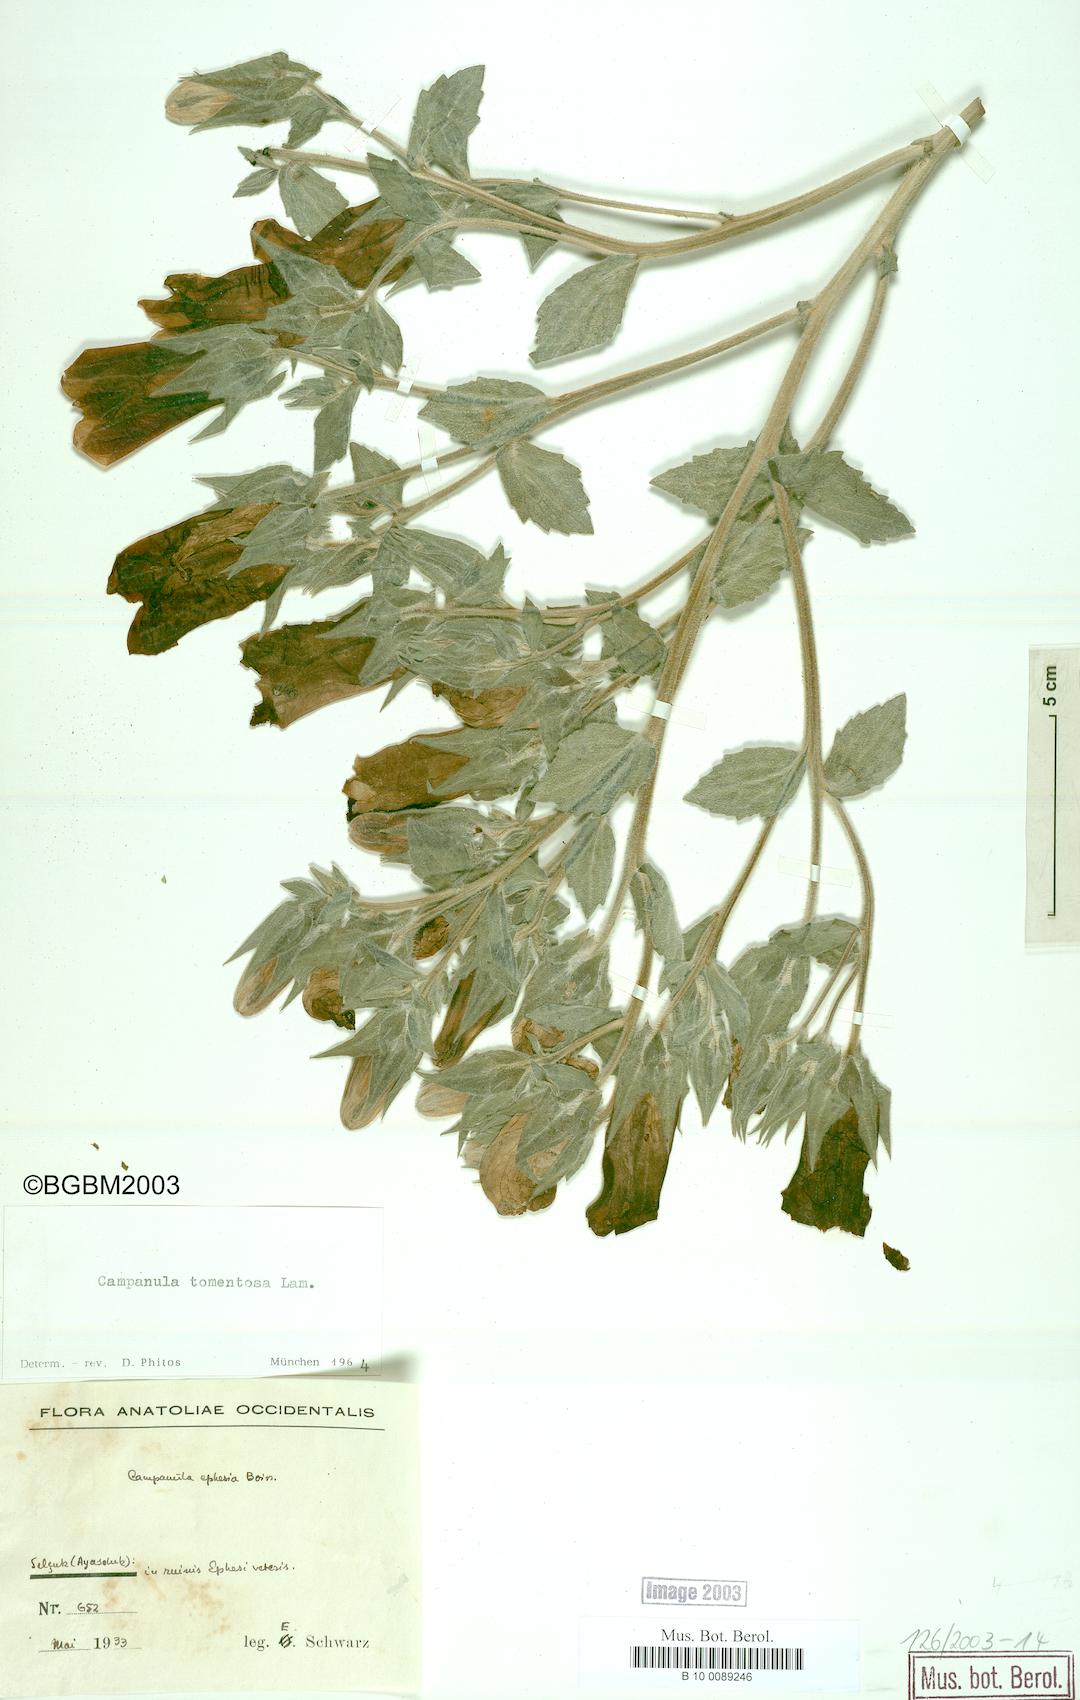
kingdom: Plantae
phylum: Tracheophyta
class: Magnoliopsida
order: Asterales
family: Campanulaceae
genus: Campanula
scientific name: Campanula tomentosa
